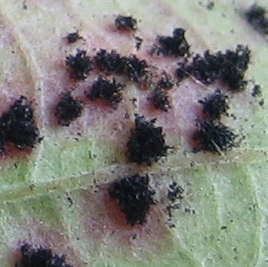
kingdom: Fungi
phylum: Basidiomycota
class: Pucciniomycetes
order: Pucciniales
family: Phragmidiaceae
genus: Phragmidium
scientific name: Phragmidium
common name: flercellerust
